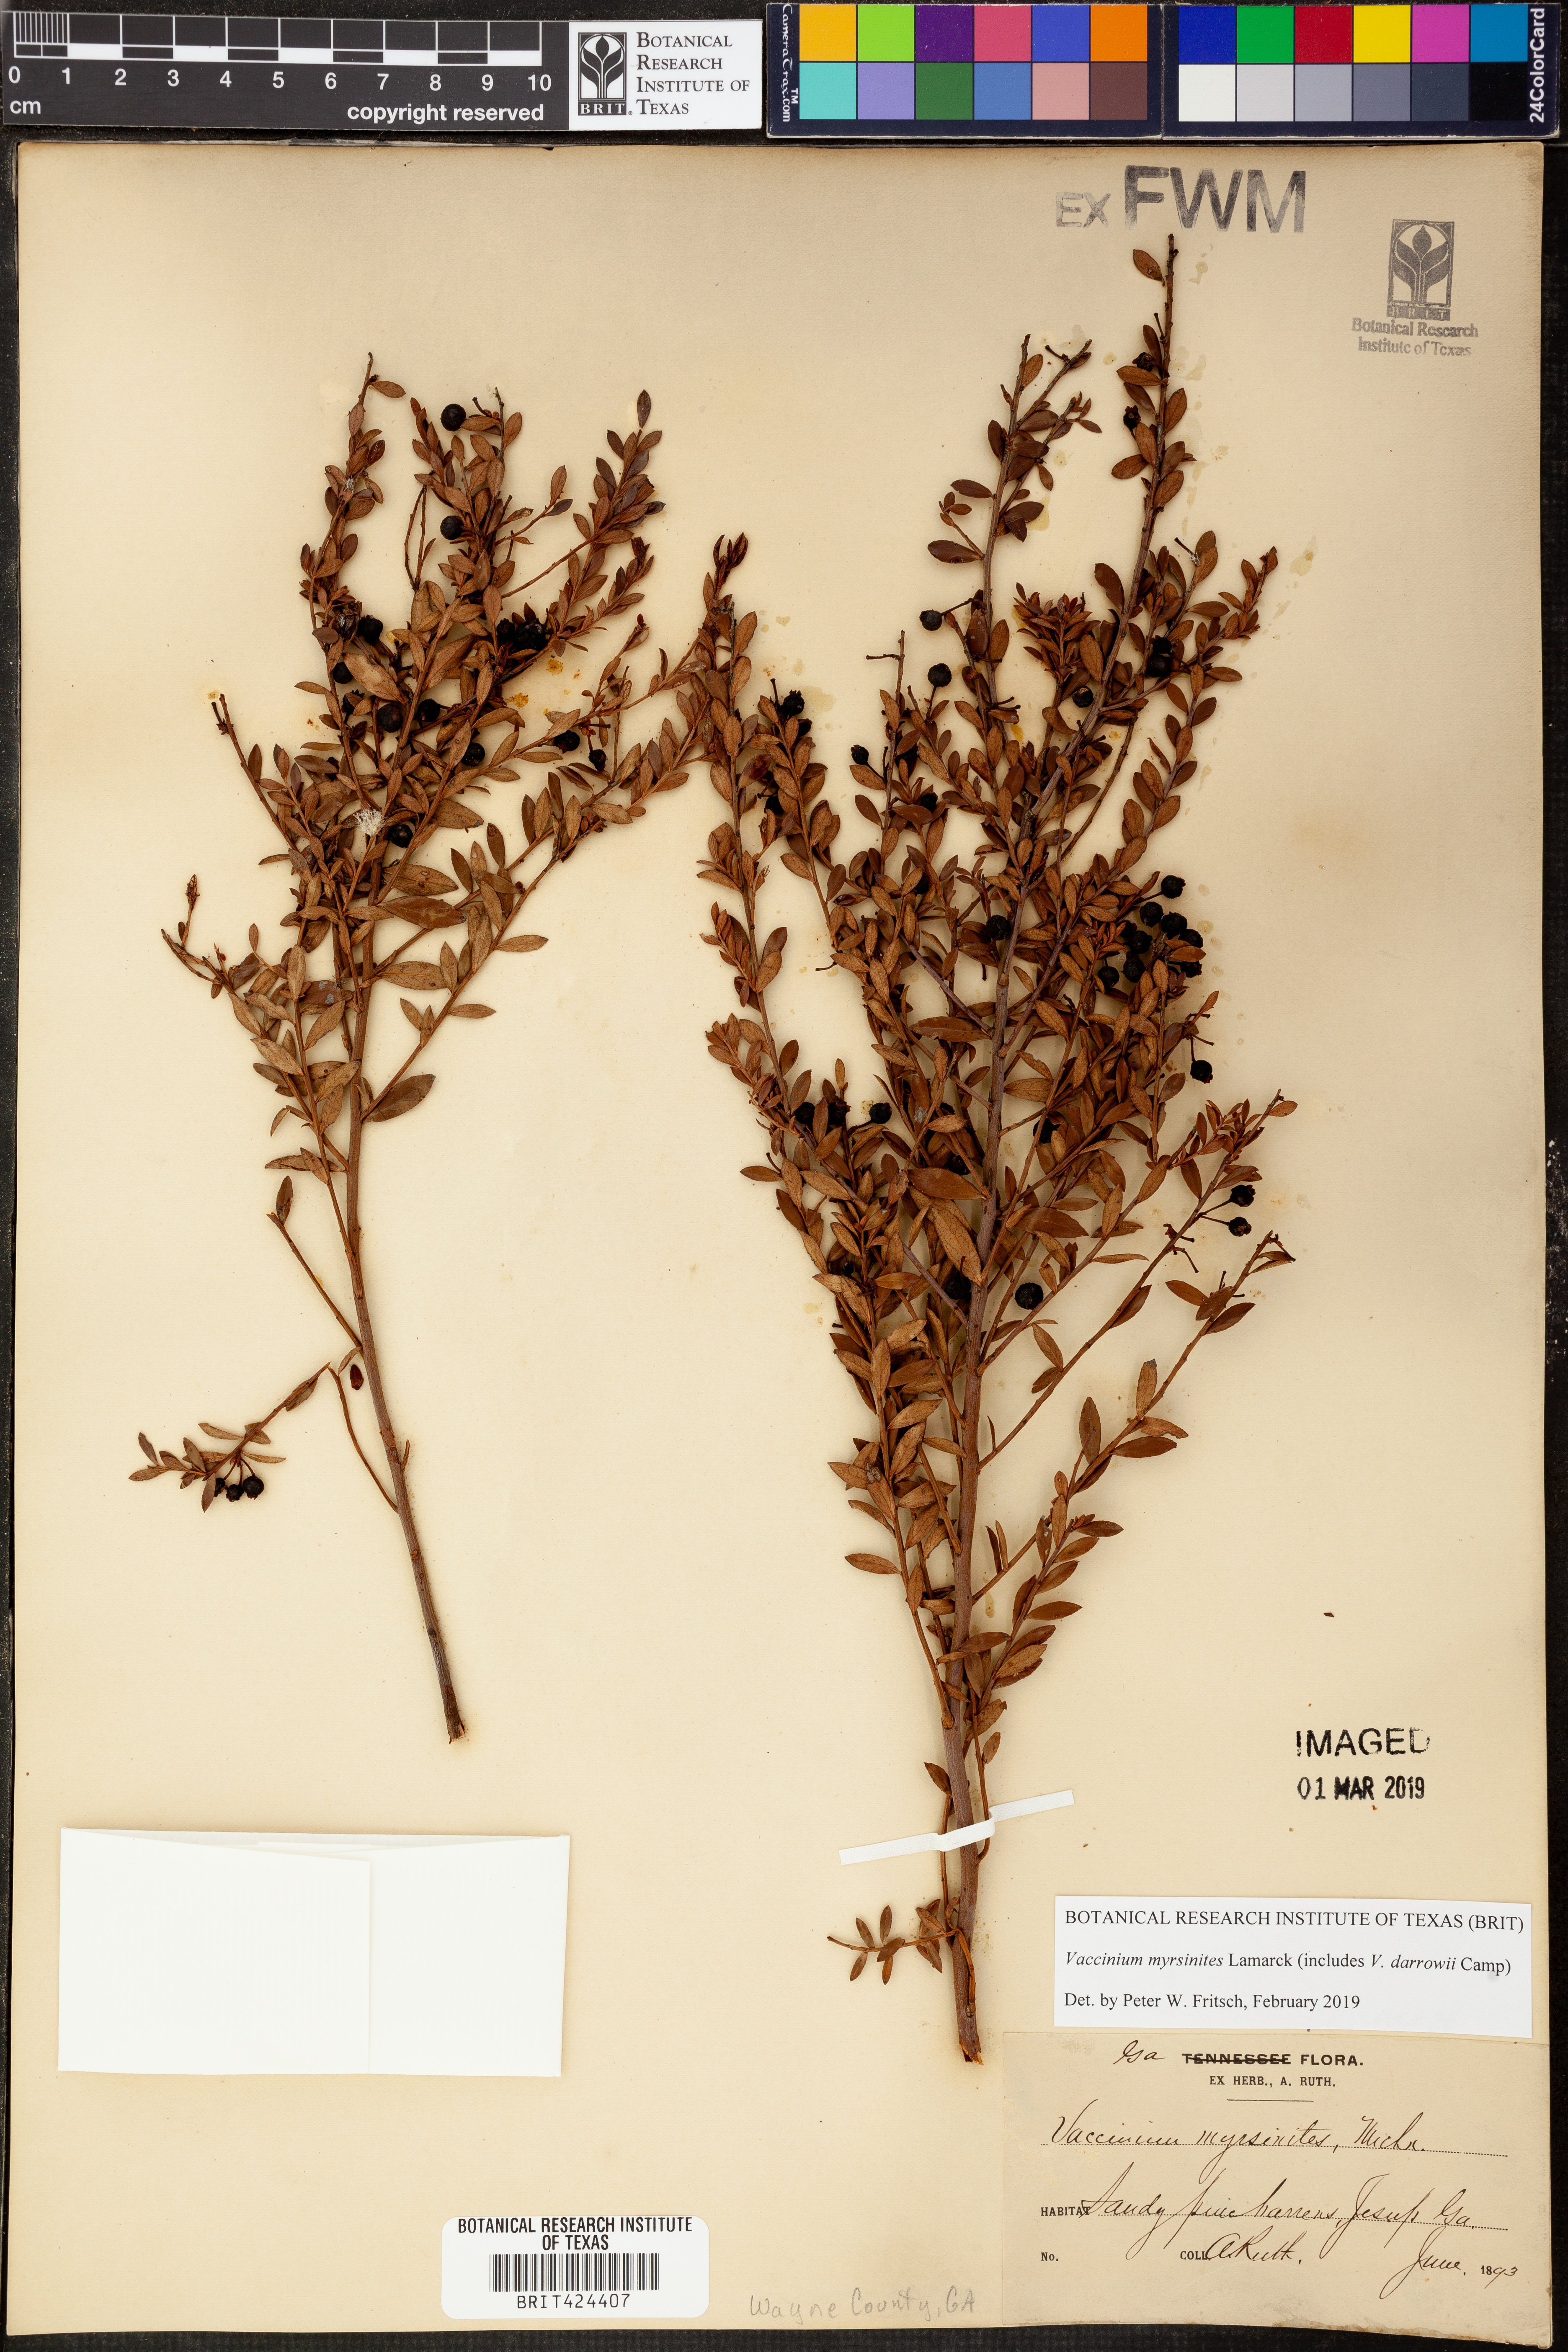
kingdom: Plantae
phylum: Tracheophyta
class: Magnoliopsida
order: Ericales
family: Ericaceae
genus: Vaccinium
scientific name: Vaccinium myrsinites
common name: Evergreen blueberry
